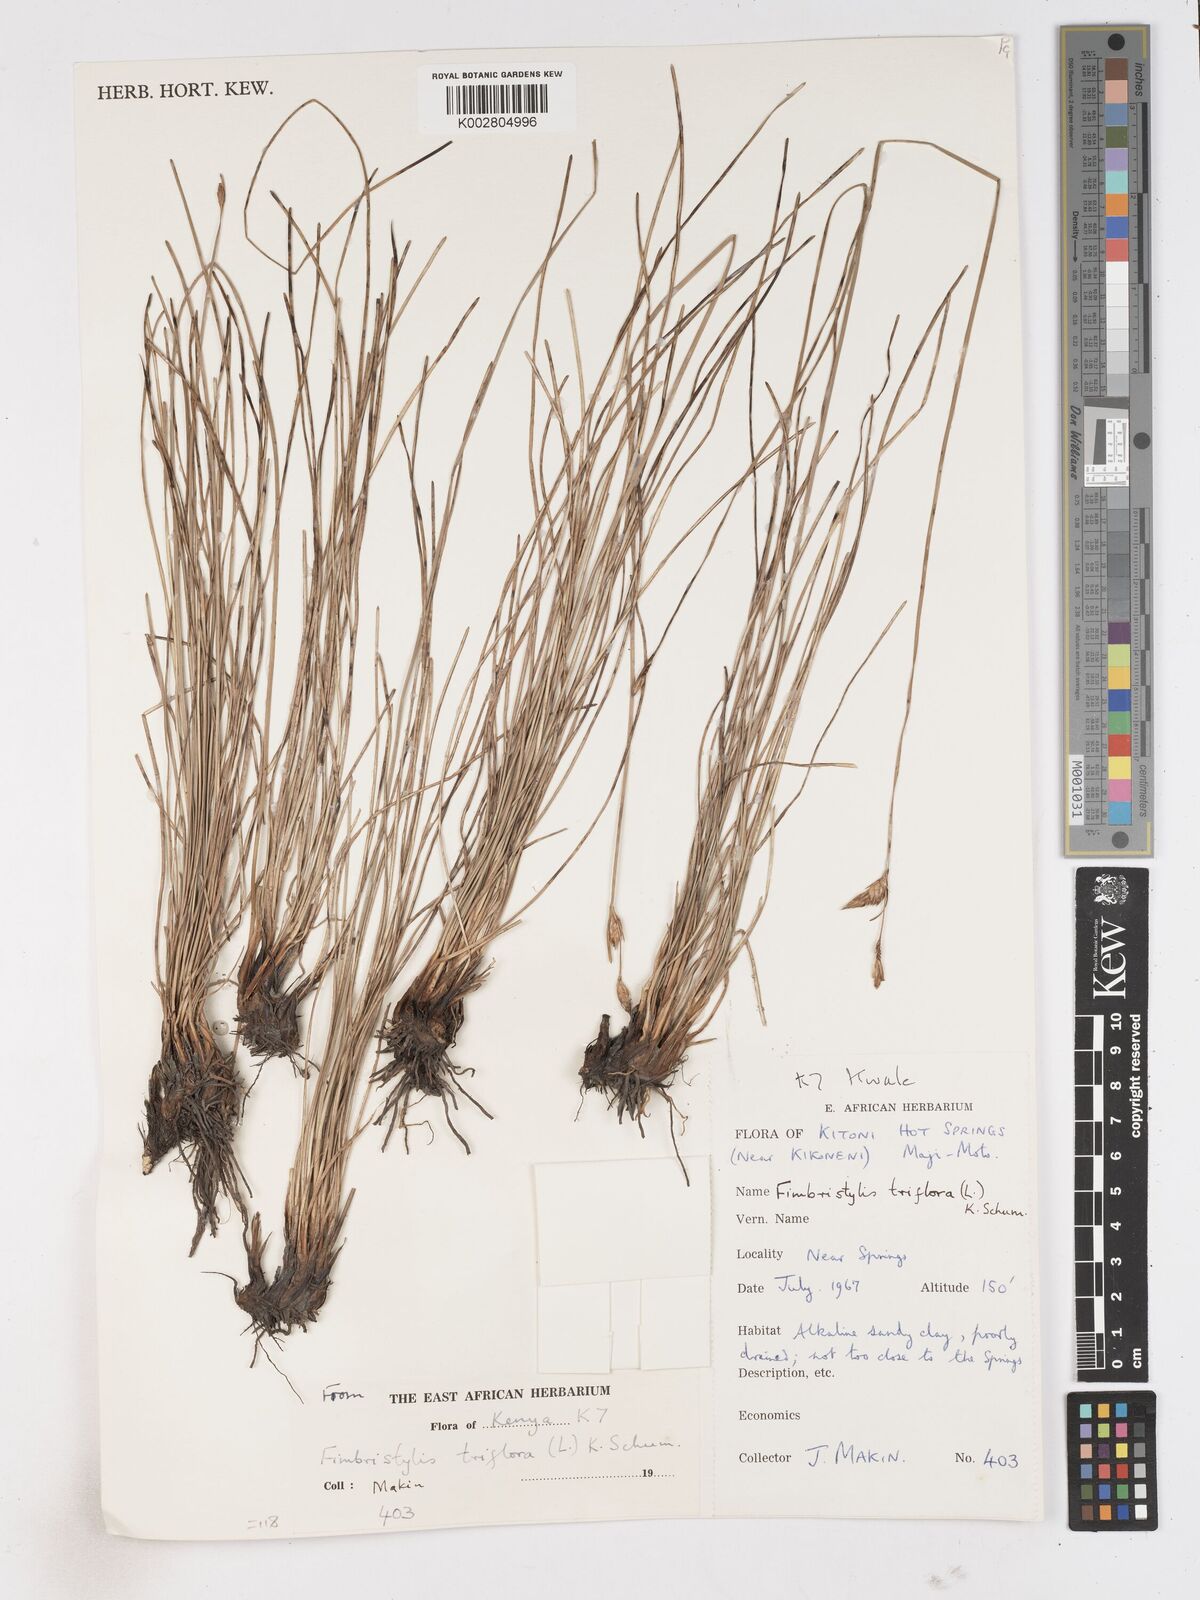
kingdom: Plantae
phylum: Tracheophyta
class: Liliopsida
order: Poales
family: Cyperaceae
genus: Abildgaardia
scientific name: Abildgaardia triflora
